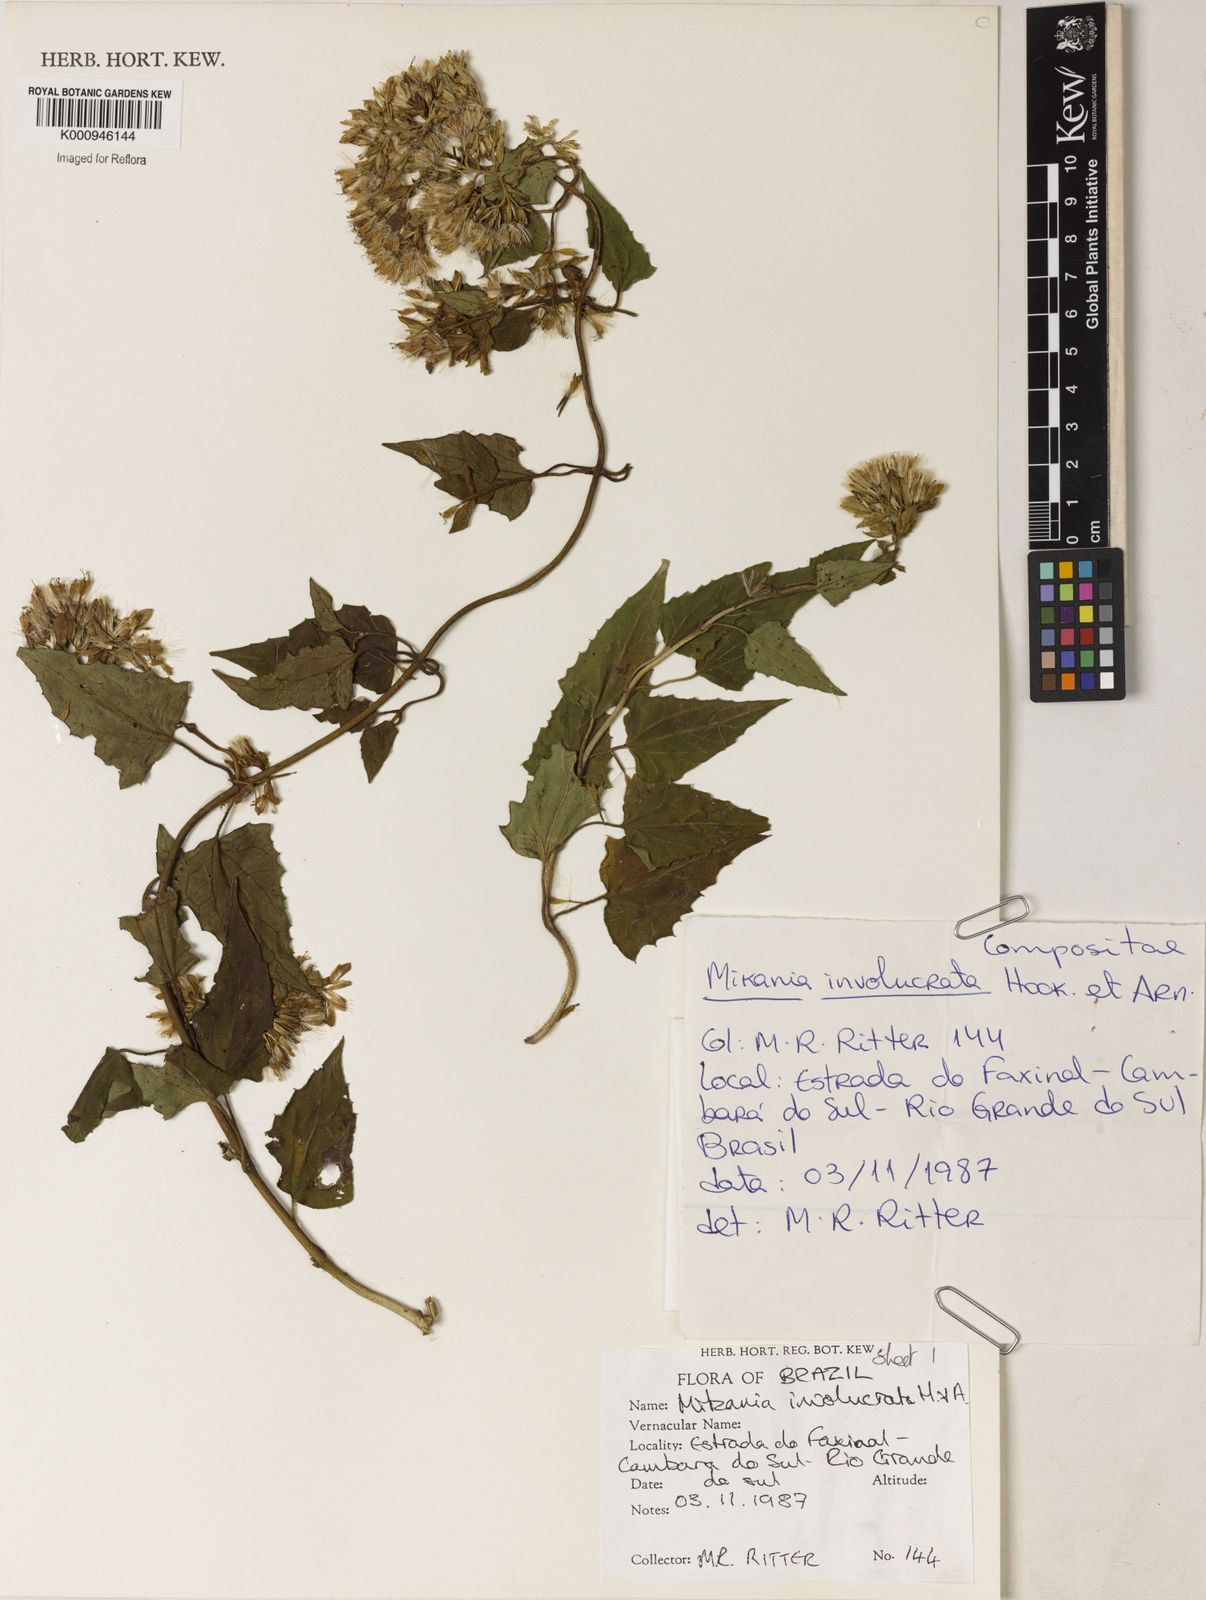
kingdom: Plantae
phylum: Tracheophyta
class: Magnoliopsida
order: Asterales
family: Asteraceae
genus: Mikania
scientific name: Mikania involucrata
